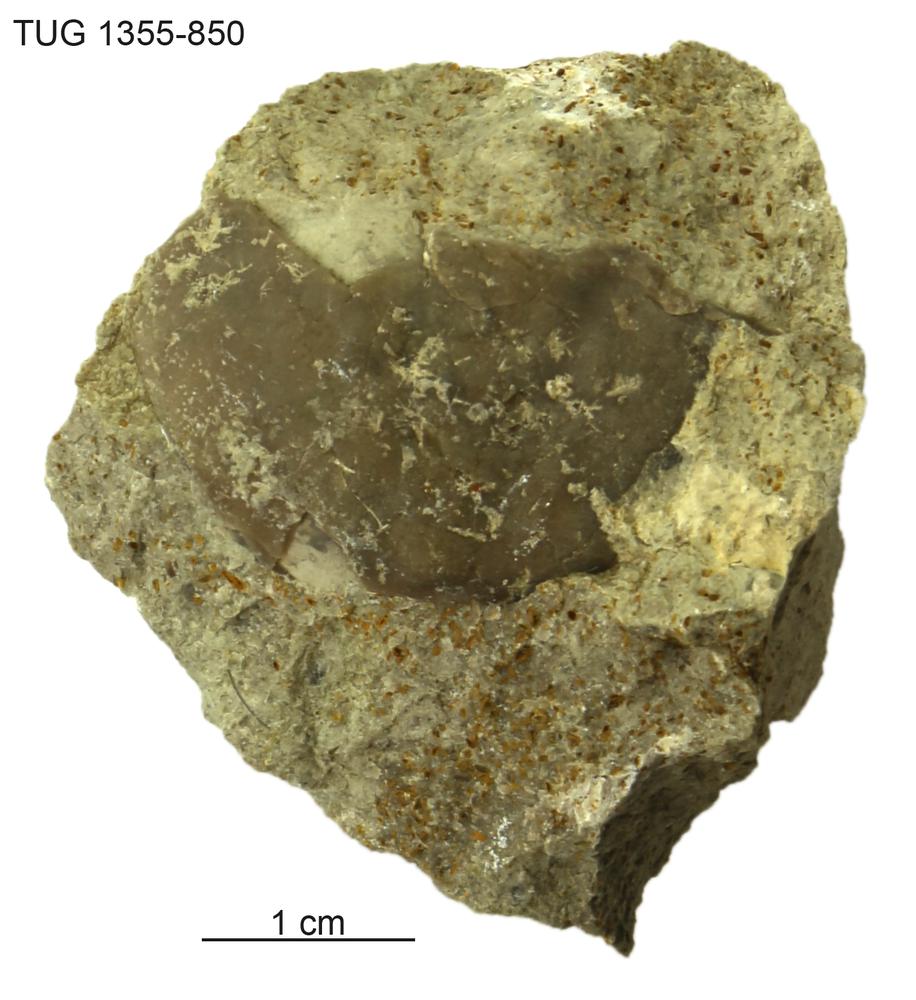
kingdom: Animalia
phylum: Arthropoda
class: Trilobita
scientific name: Trilobita
